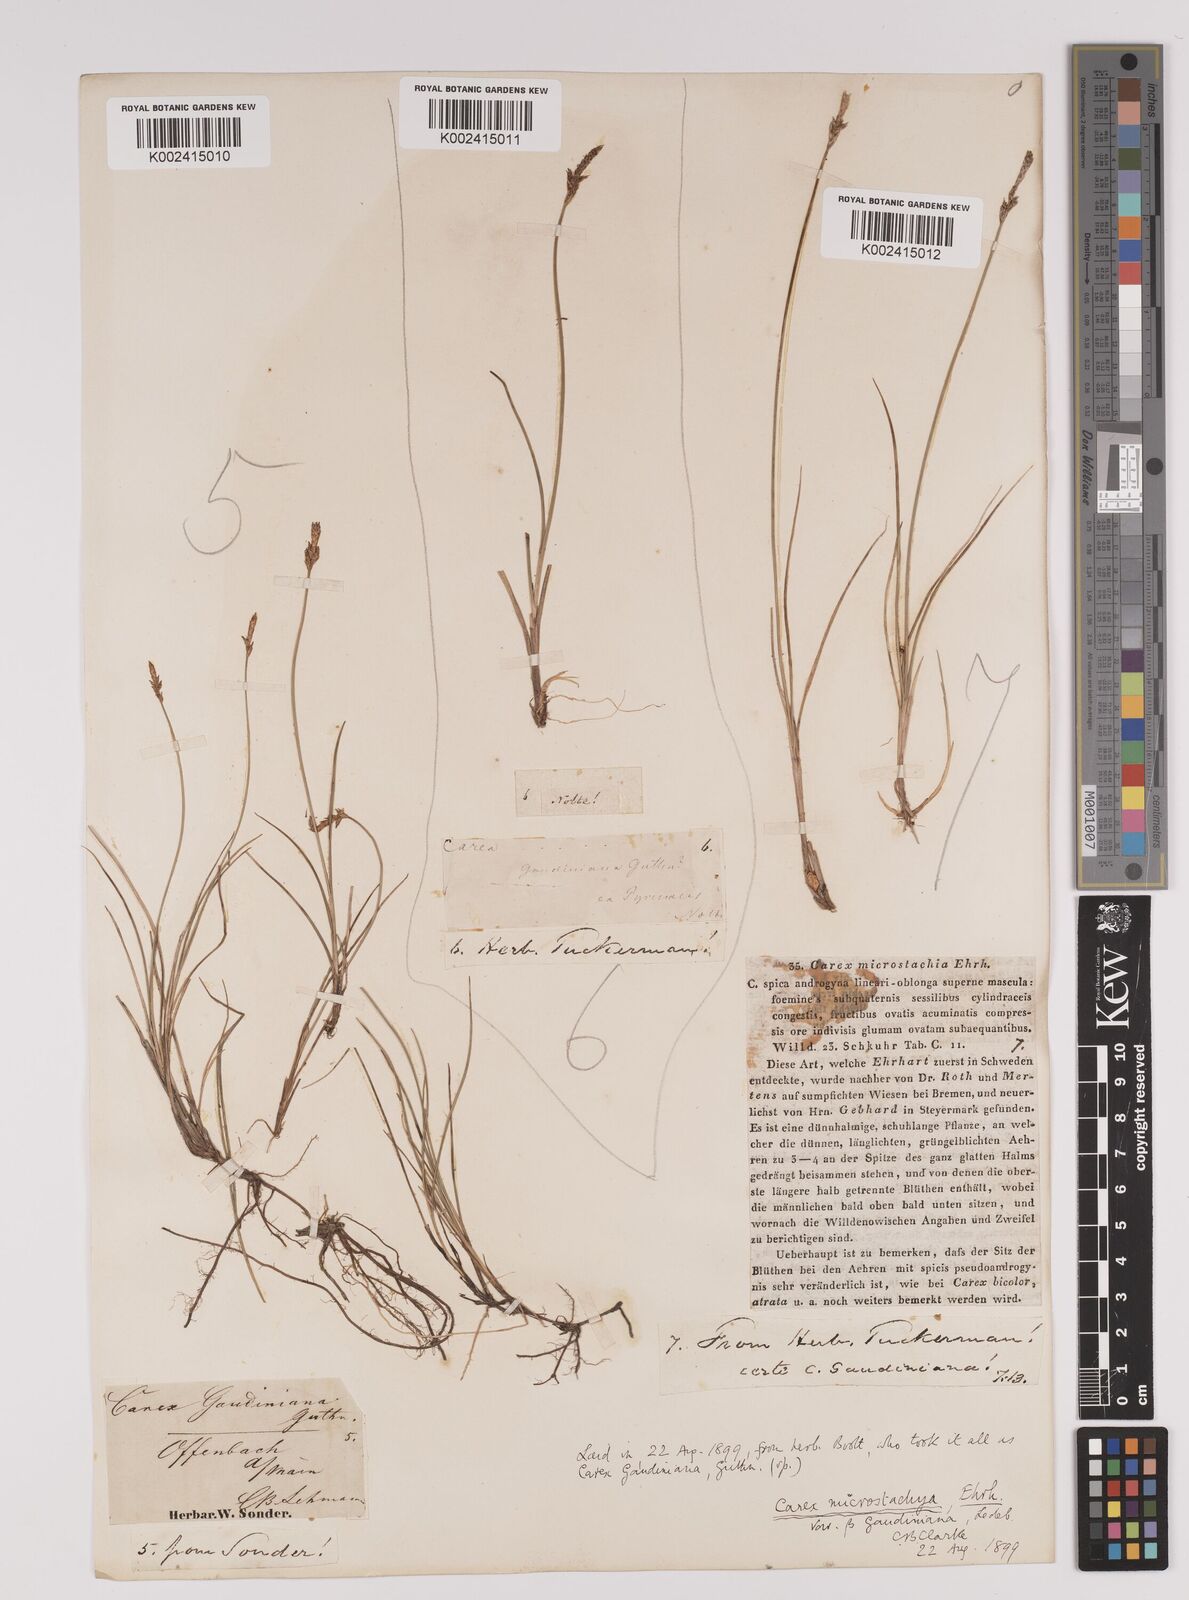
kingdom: Plantae
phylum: Tracheophyta
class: Liliopsida
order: Poales
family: Cyperaceae
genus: Carex
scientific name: Carex dioica
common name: Dioecious sedge
